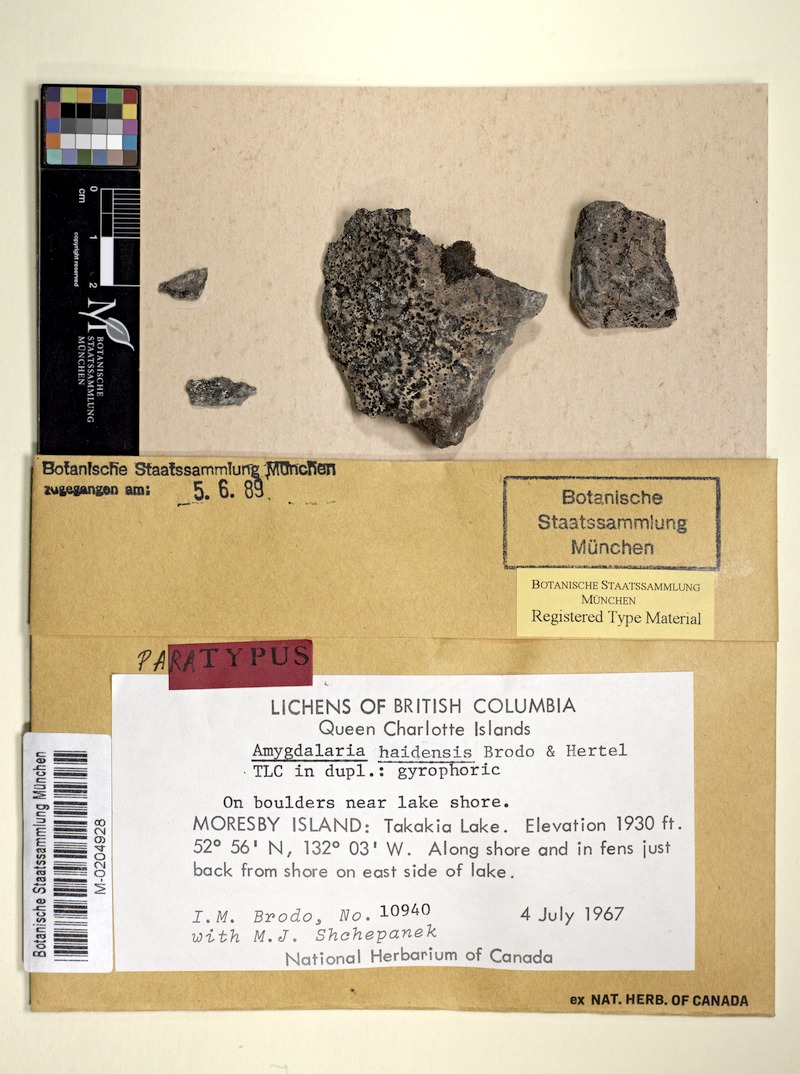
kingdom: Fungi
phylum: Ascomycota
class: Lecanoromycetes
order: Lecideales
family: Lecideaceae
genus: Amygdalaria
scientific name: Amygdalaria haidensis
